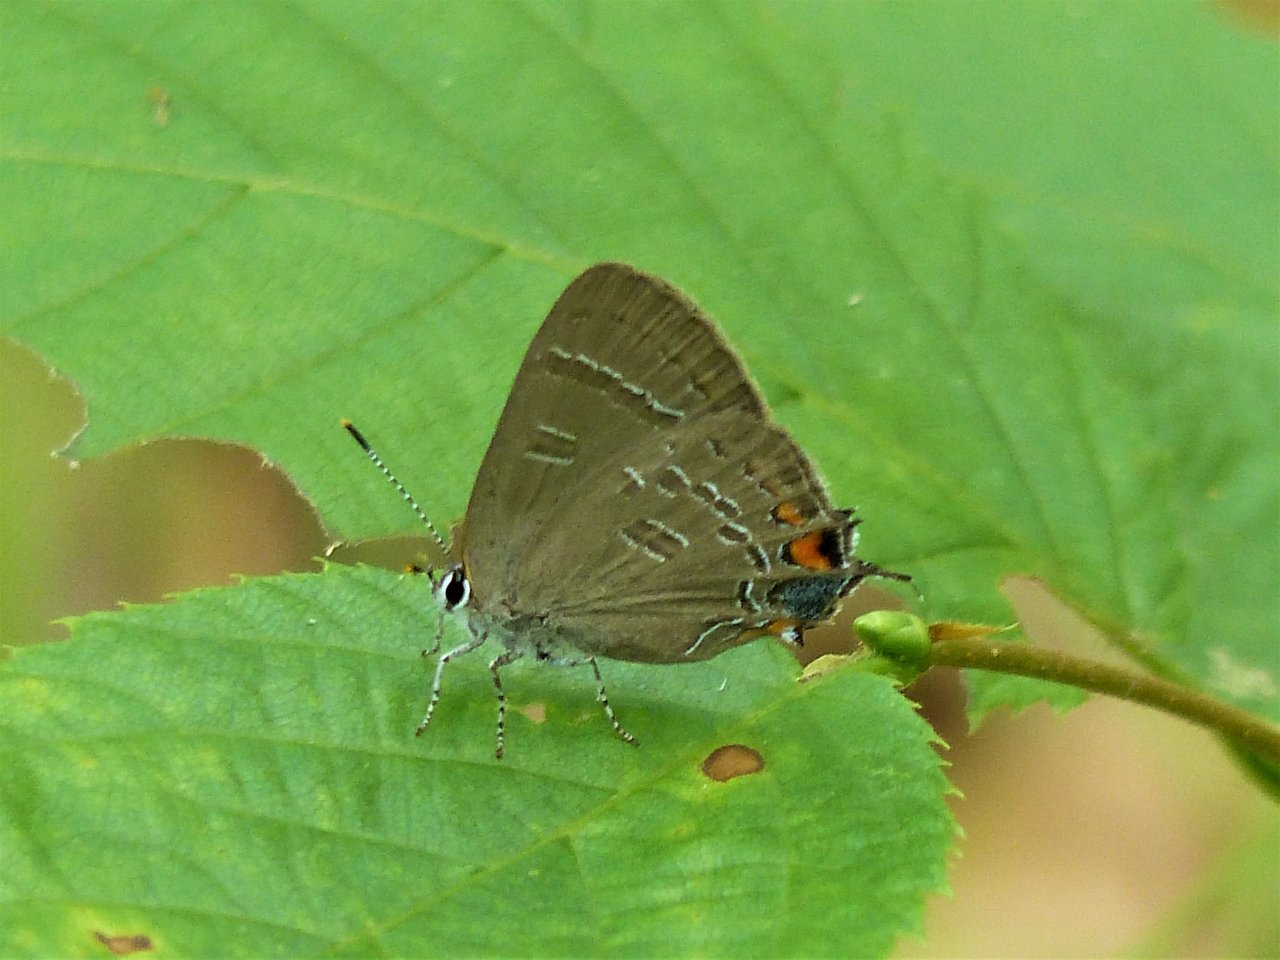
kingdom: Animalia
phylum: Arthropoda
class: Insecta
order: Lepidoptera
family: Lycaenidae
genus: Satyrium
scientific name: Satyrium calanus
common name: Banded Hairstreak
